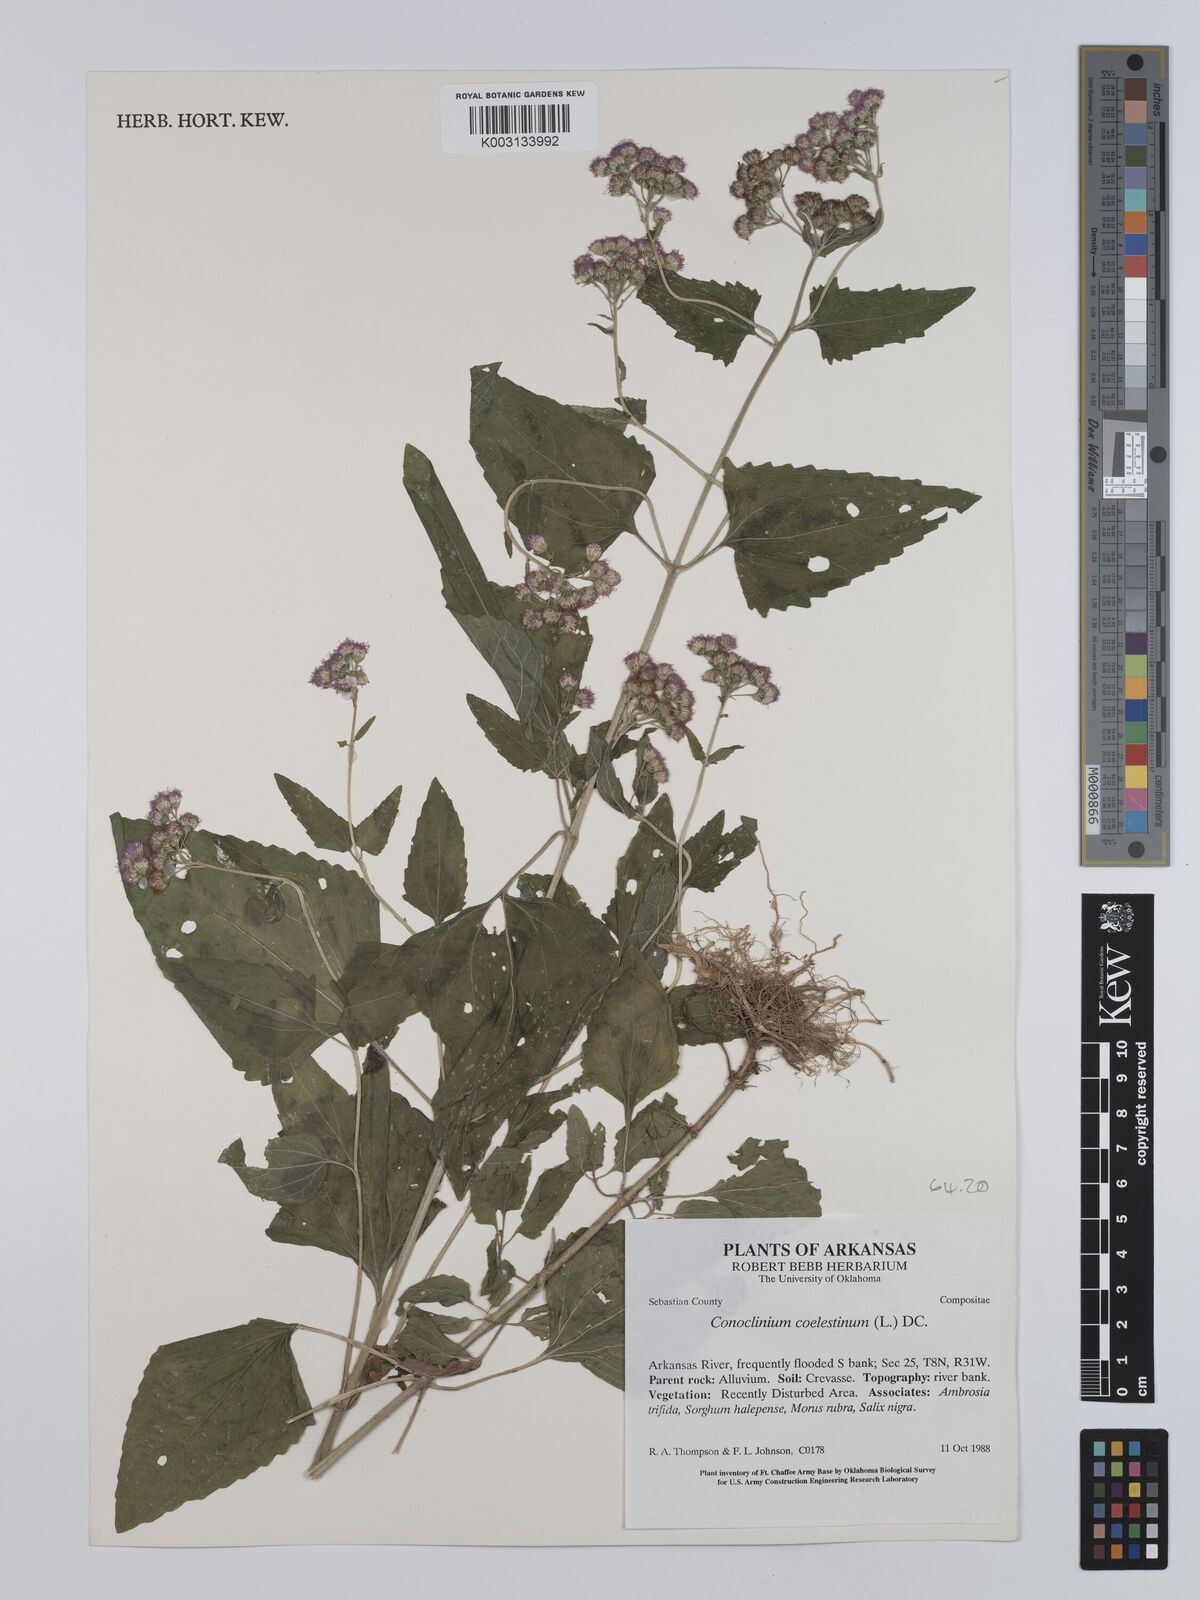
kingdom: Plantae
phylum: Tracheophyta
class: Magnoliopsida
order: Asterales
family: Asteraceae
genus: Conoclinium
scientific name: Conoclinium coelestinum
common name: Blue mistflower
